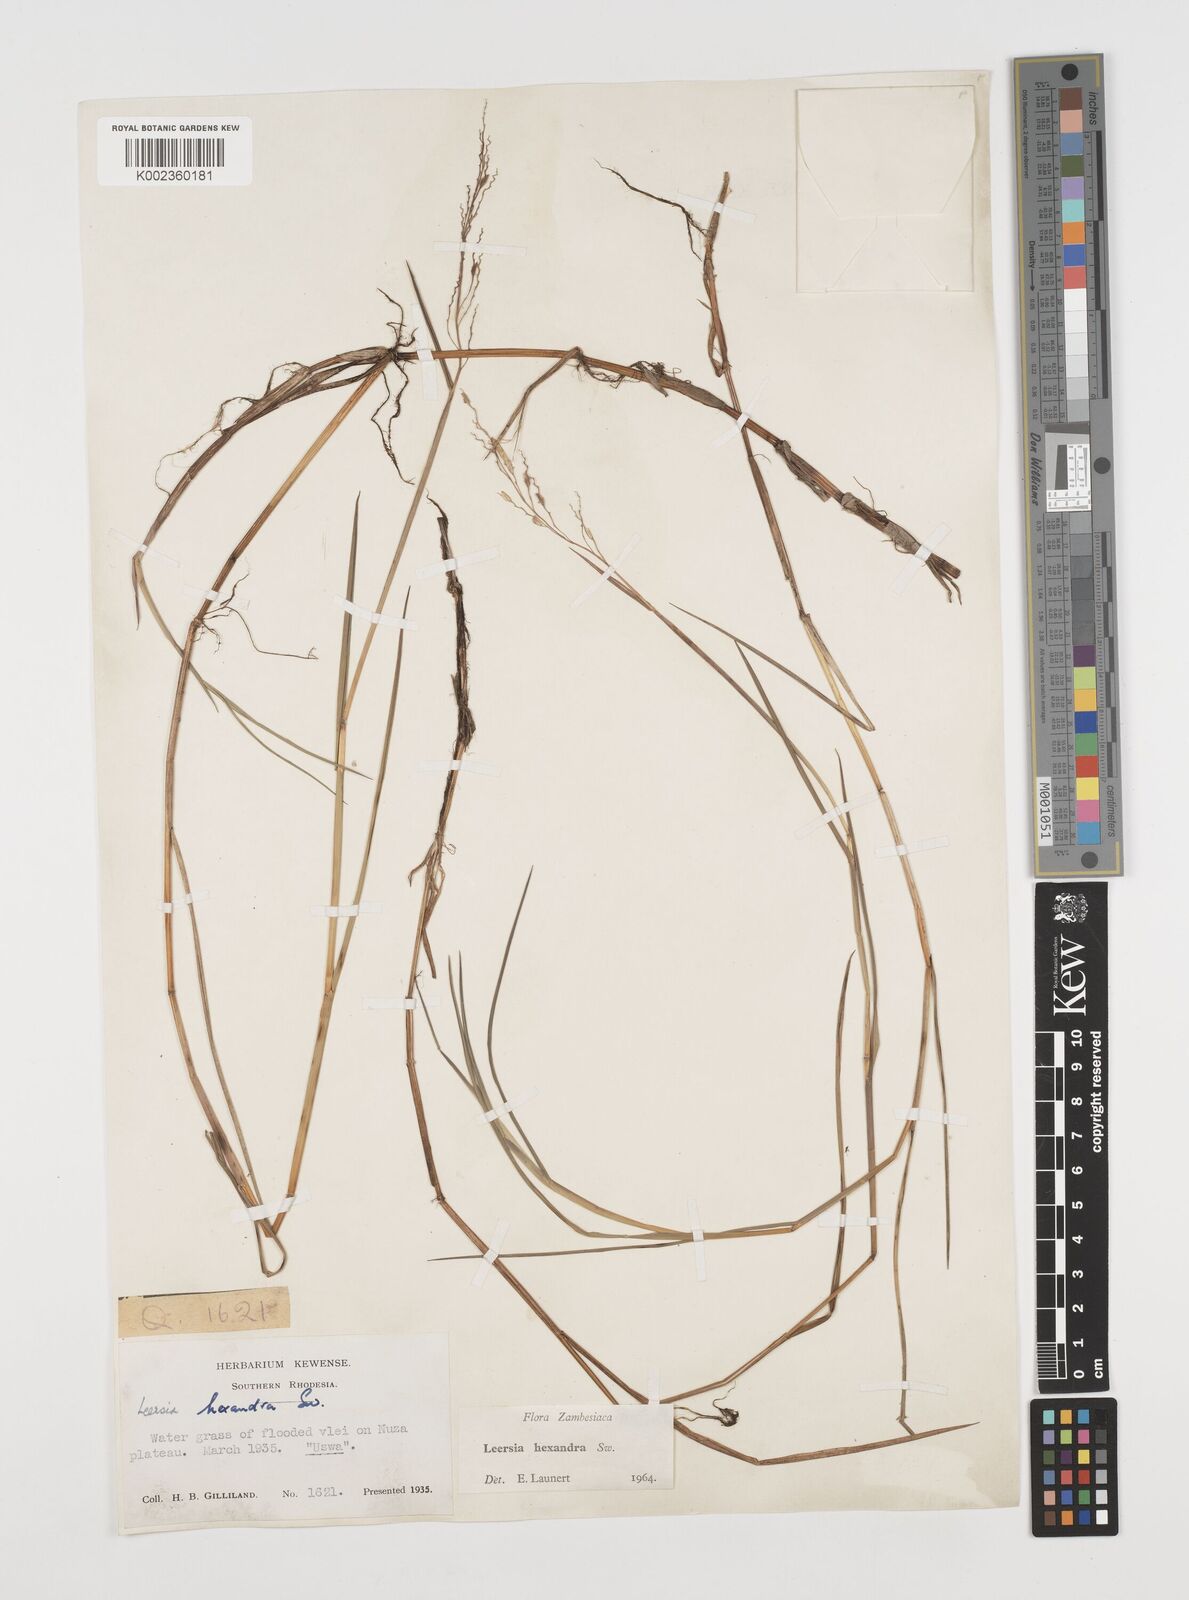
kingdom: Plantae
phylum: Tracheophyta
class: Liliopsida
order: Poales
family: Poaceae
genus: Leersia
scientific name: Leersia hexandra
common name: Southern cut grass
